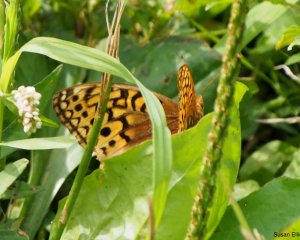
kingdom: Animalia
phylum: Arthropoda
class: Insecta
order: Lepidoptera
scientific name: Lepidoptera
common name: Butterflies
